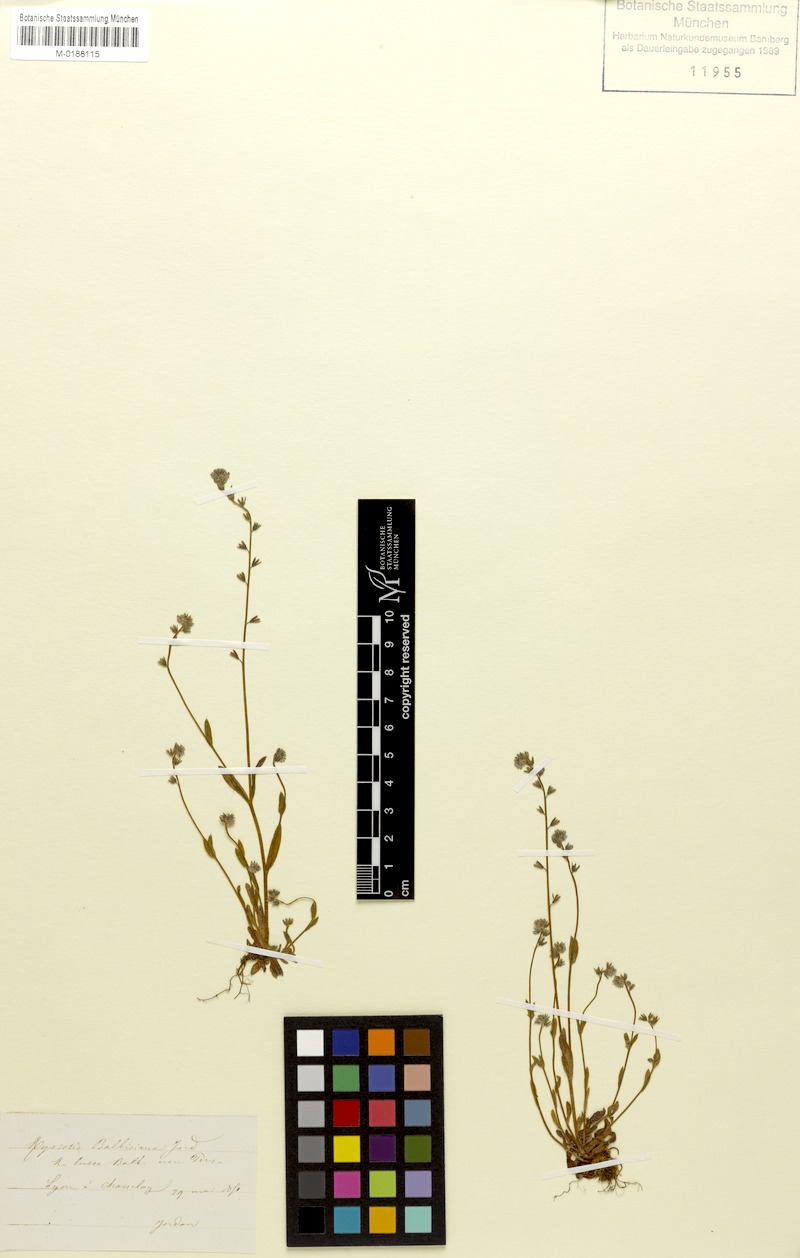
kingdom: Plantae
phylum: Tracheophyta
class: Magnoliopsida
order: Boraginales
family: Boraginaceae
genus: Myosotis
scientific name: Myosotis balbisiana
